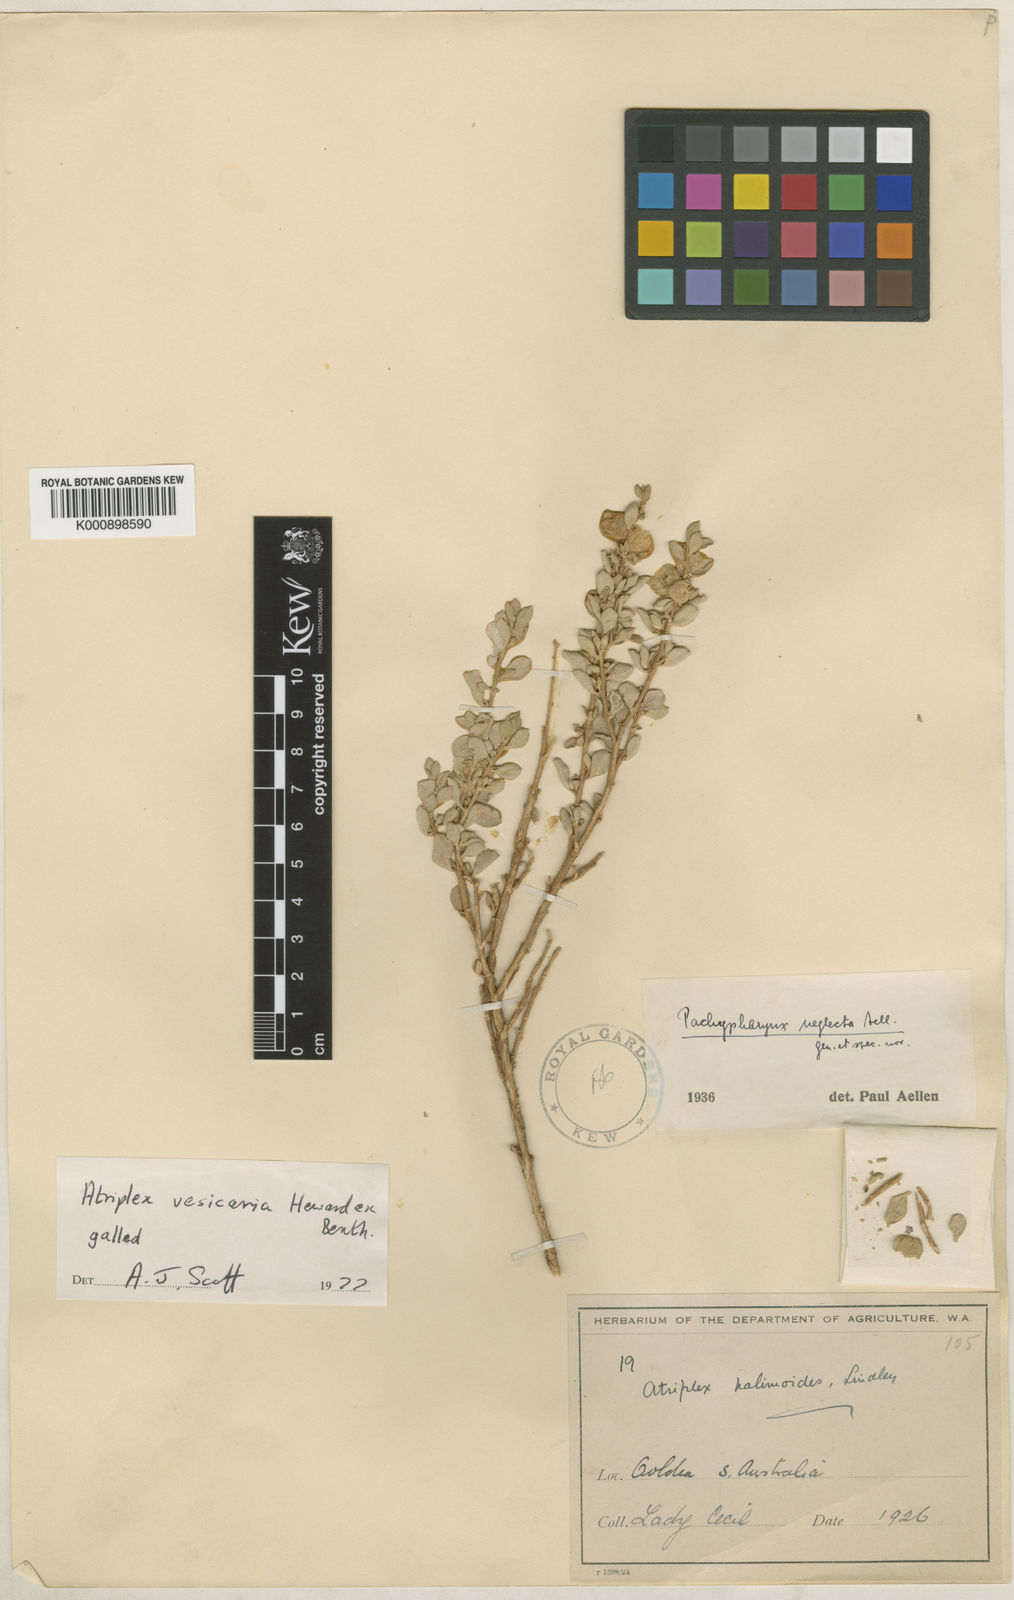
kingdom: Plantae
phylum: Tracheophyta
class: Magnoliopsida
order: Caryophyllales
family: Amaranthaceae
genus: Atriplex
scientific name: Atriplex hymenotheca
